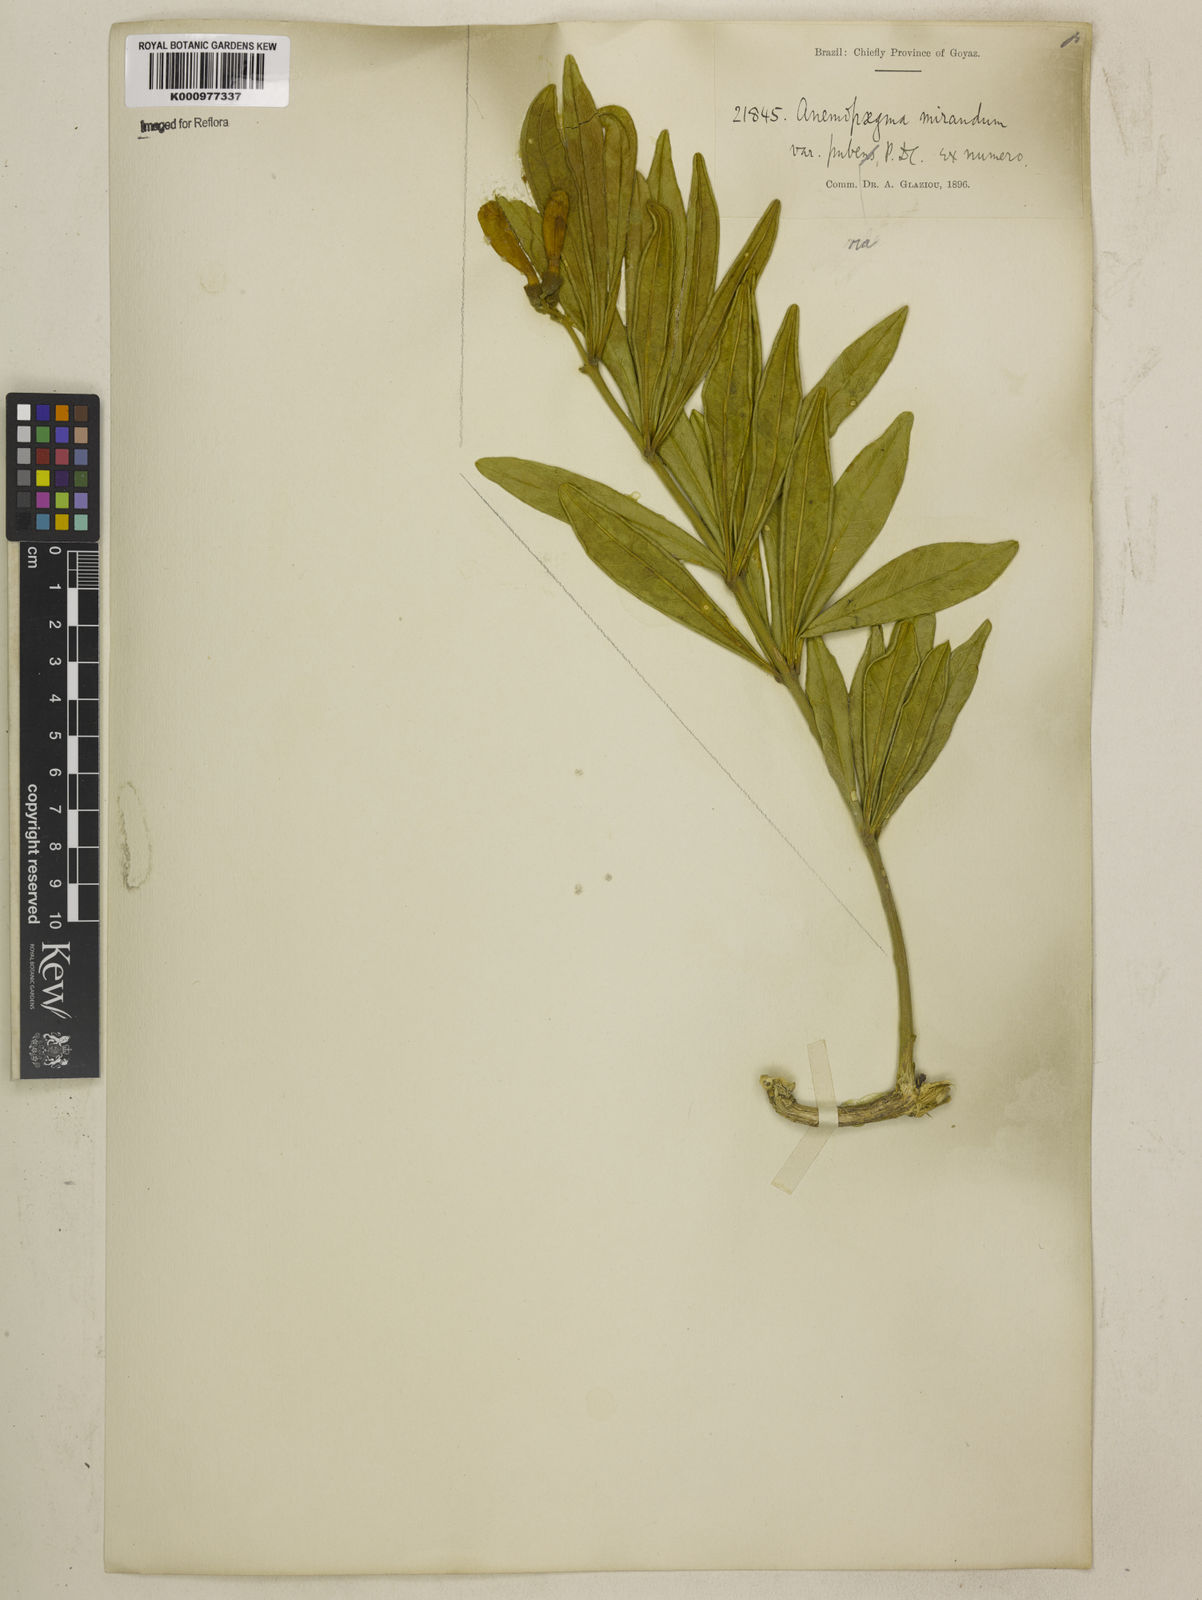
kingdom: Plantae
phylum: Tracheophyta
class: Magnoliopsida
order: Lamiales
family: Bignoniaceae
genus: Anemopaegma
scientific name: Anemopaegma arvense
